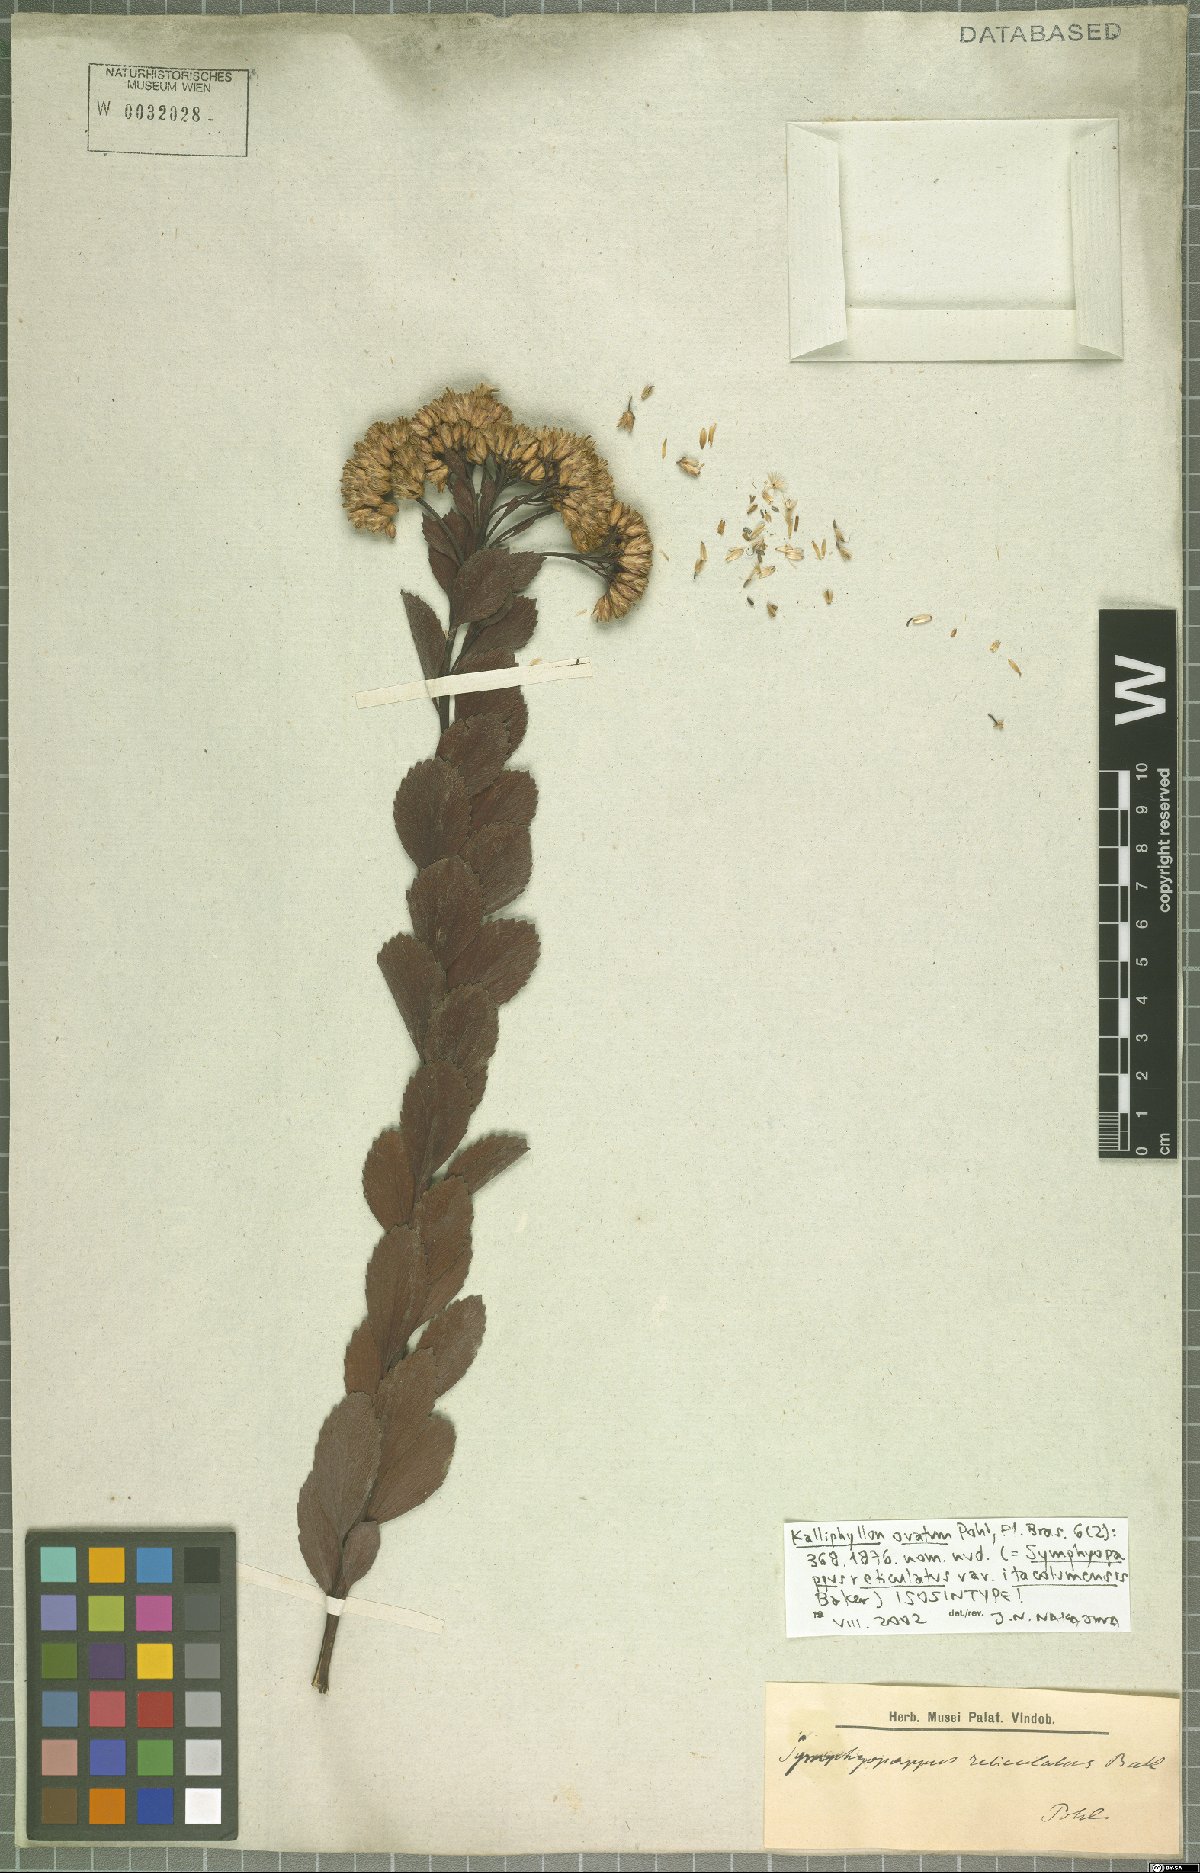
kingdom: Plantae
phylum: Tracheophyta
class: Magnoliopsida
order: Asterales
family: Asteraceae
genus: Symphyopappus
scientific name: Symphyopappus reticulatus
